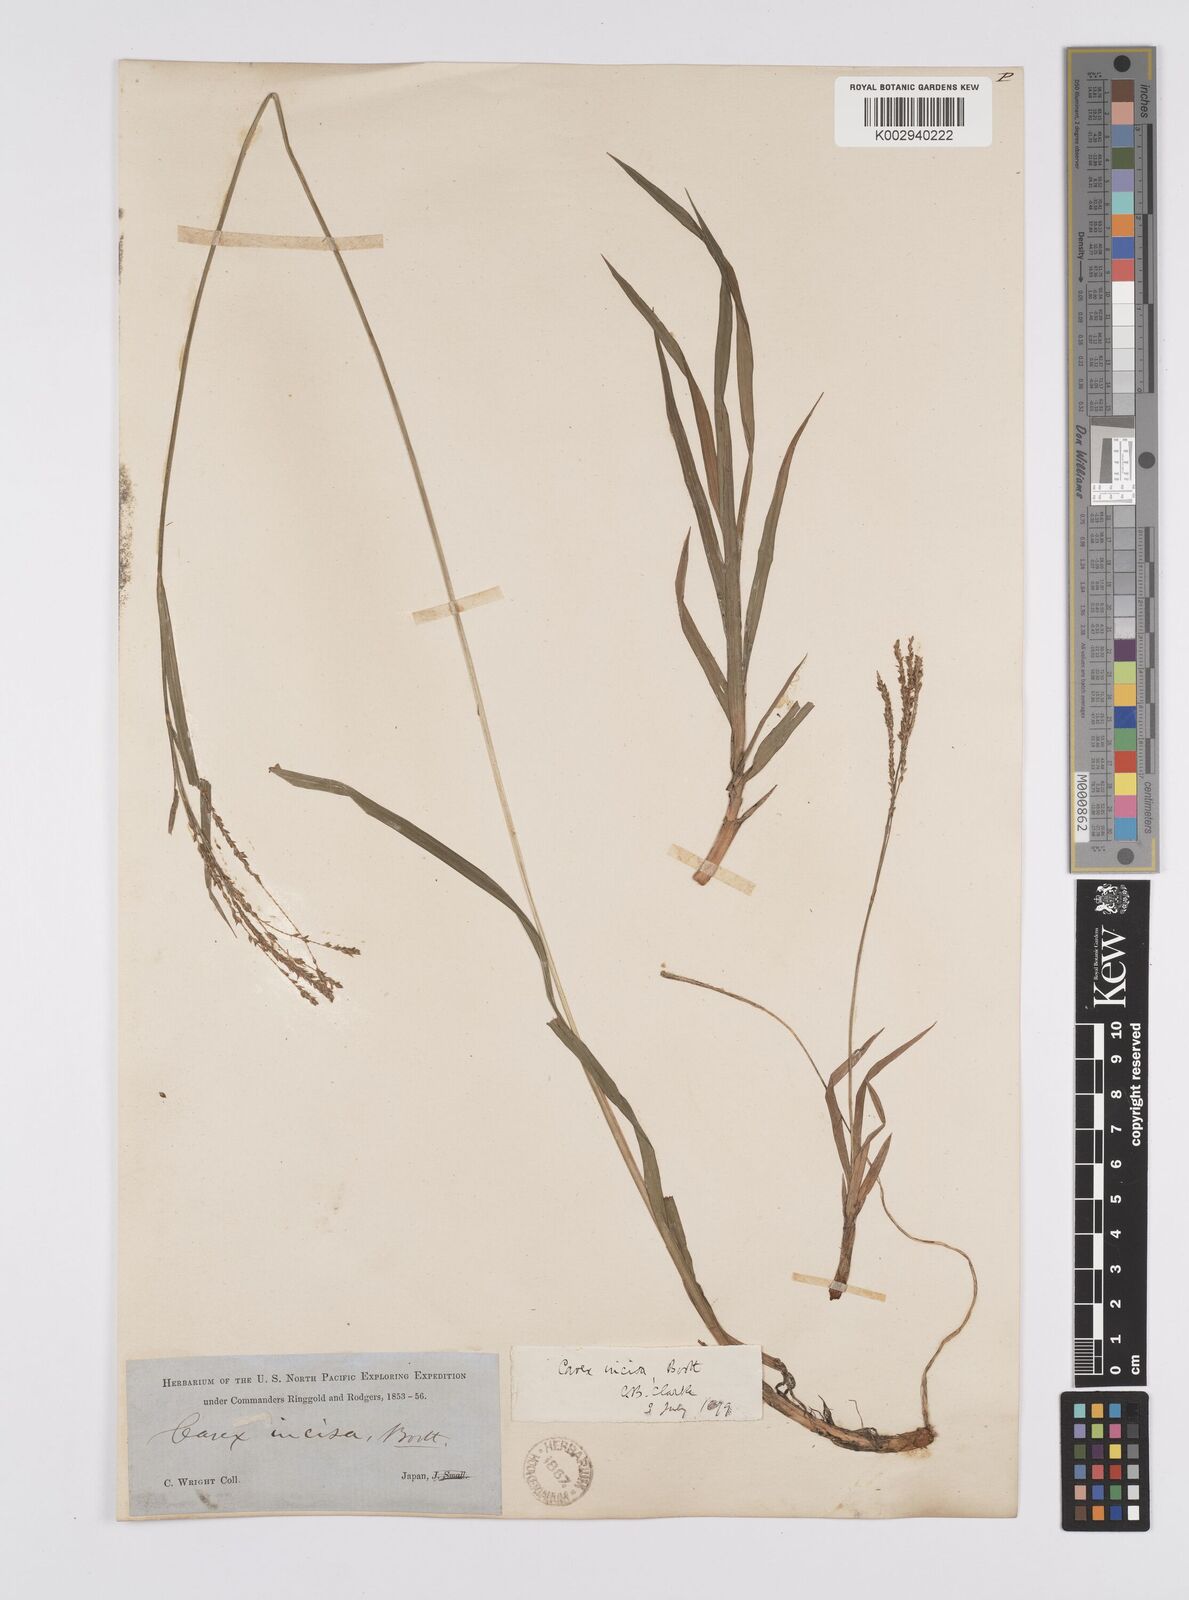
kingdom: Plantae
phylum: Tracheophyta
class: Liliopsida
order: Poales
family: Cyperaceae
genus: Carex
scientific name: Carex incisa
